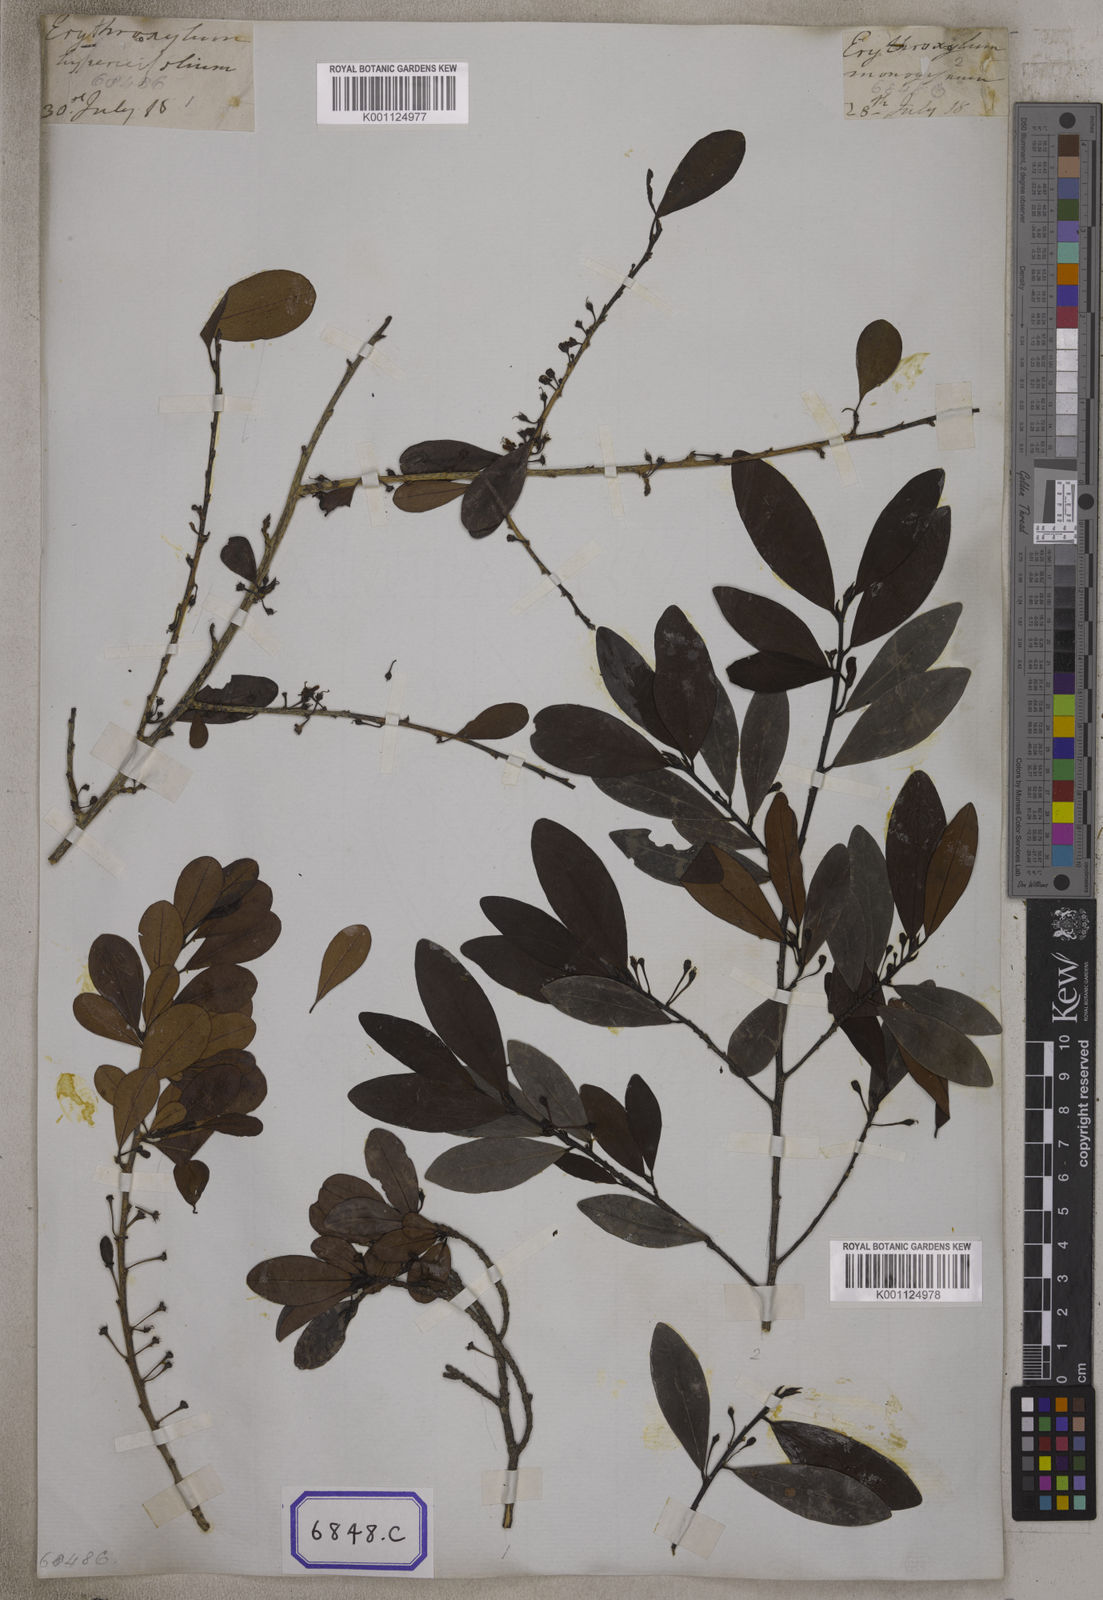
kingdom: Plantae
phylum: Tracheophyta
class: Magnoliopsida
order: Malpighiales
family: Erythroxylaceae
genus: Erythroxylum
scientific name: Erythroxylum monogynum
